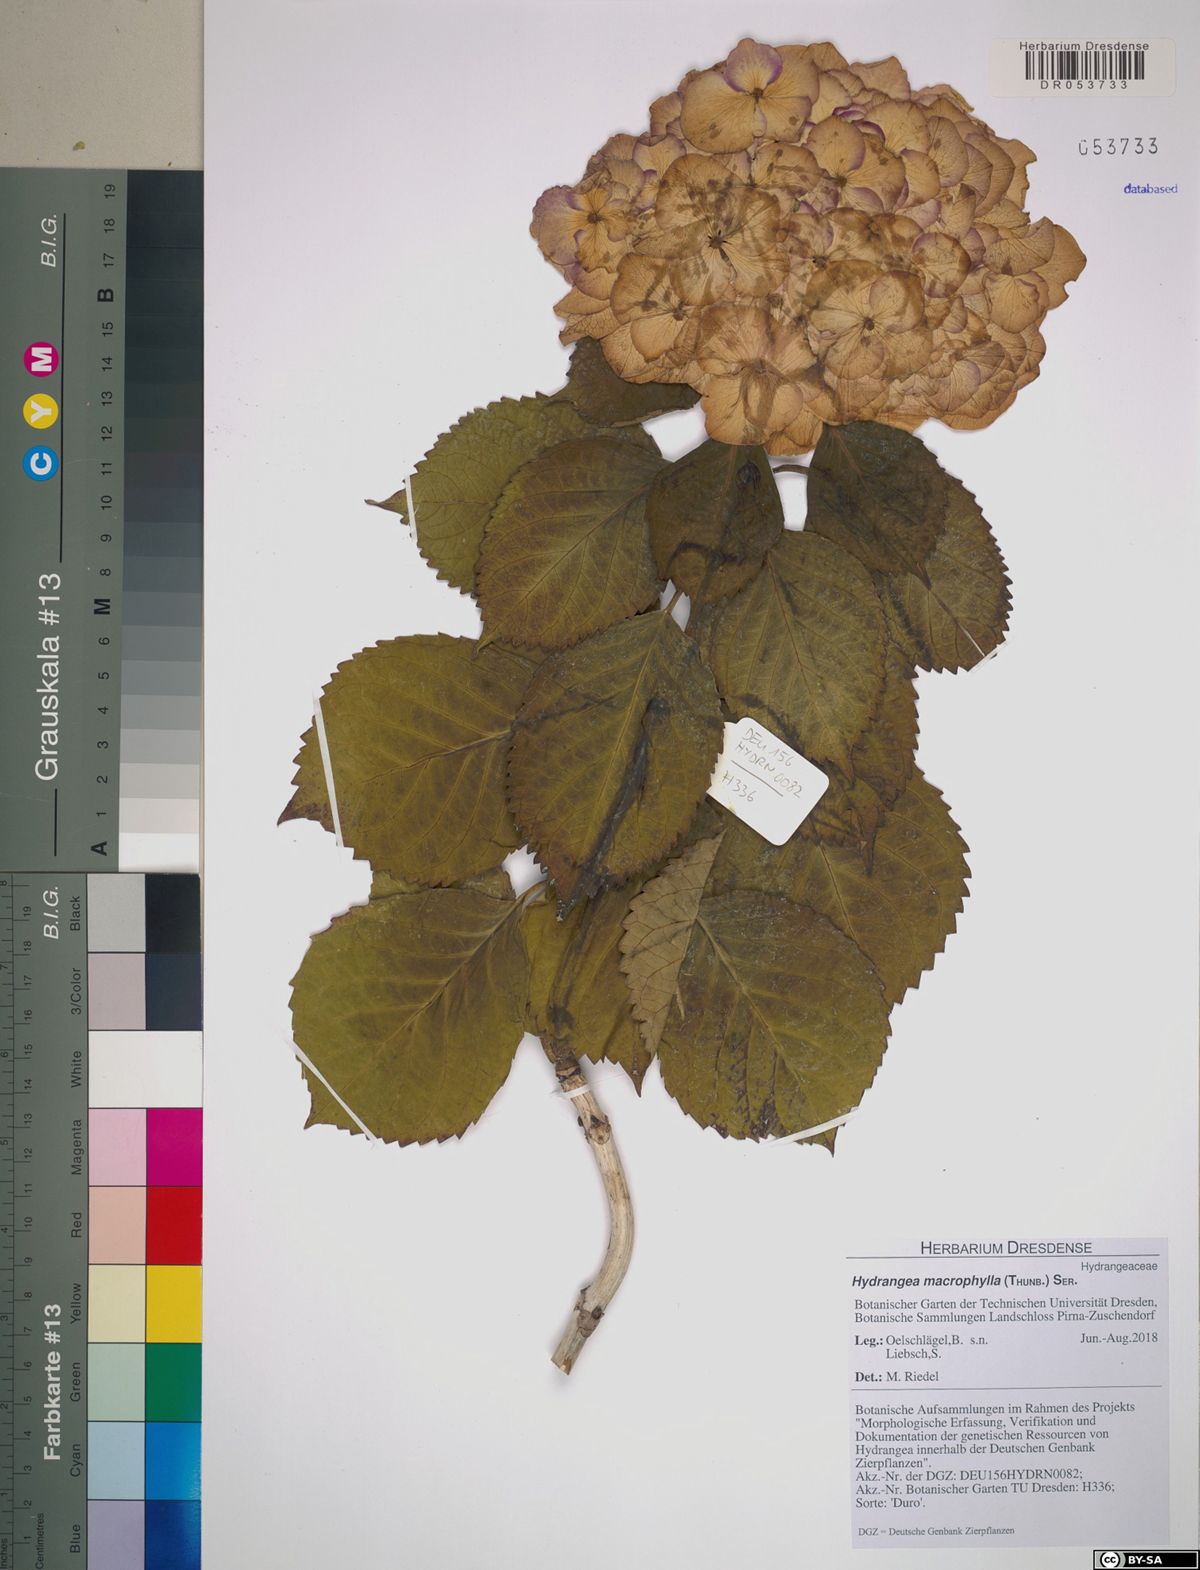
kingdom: Plantae
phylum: Tracheophyta
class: Magnoliopsida
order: Cornales
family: Hydrangeaceae
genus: Hydrangea
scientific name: Hydrangea macrophylla
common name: Hydrangea
